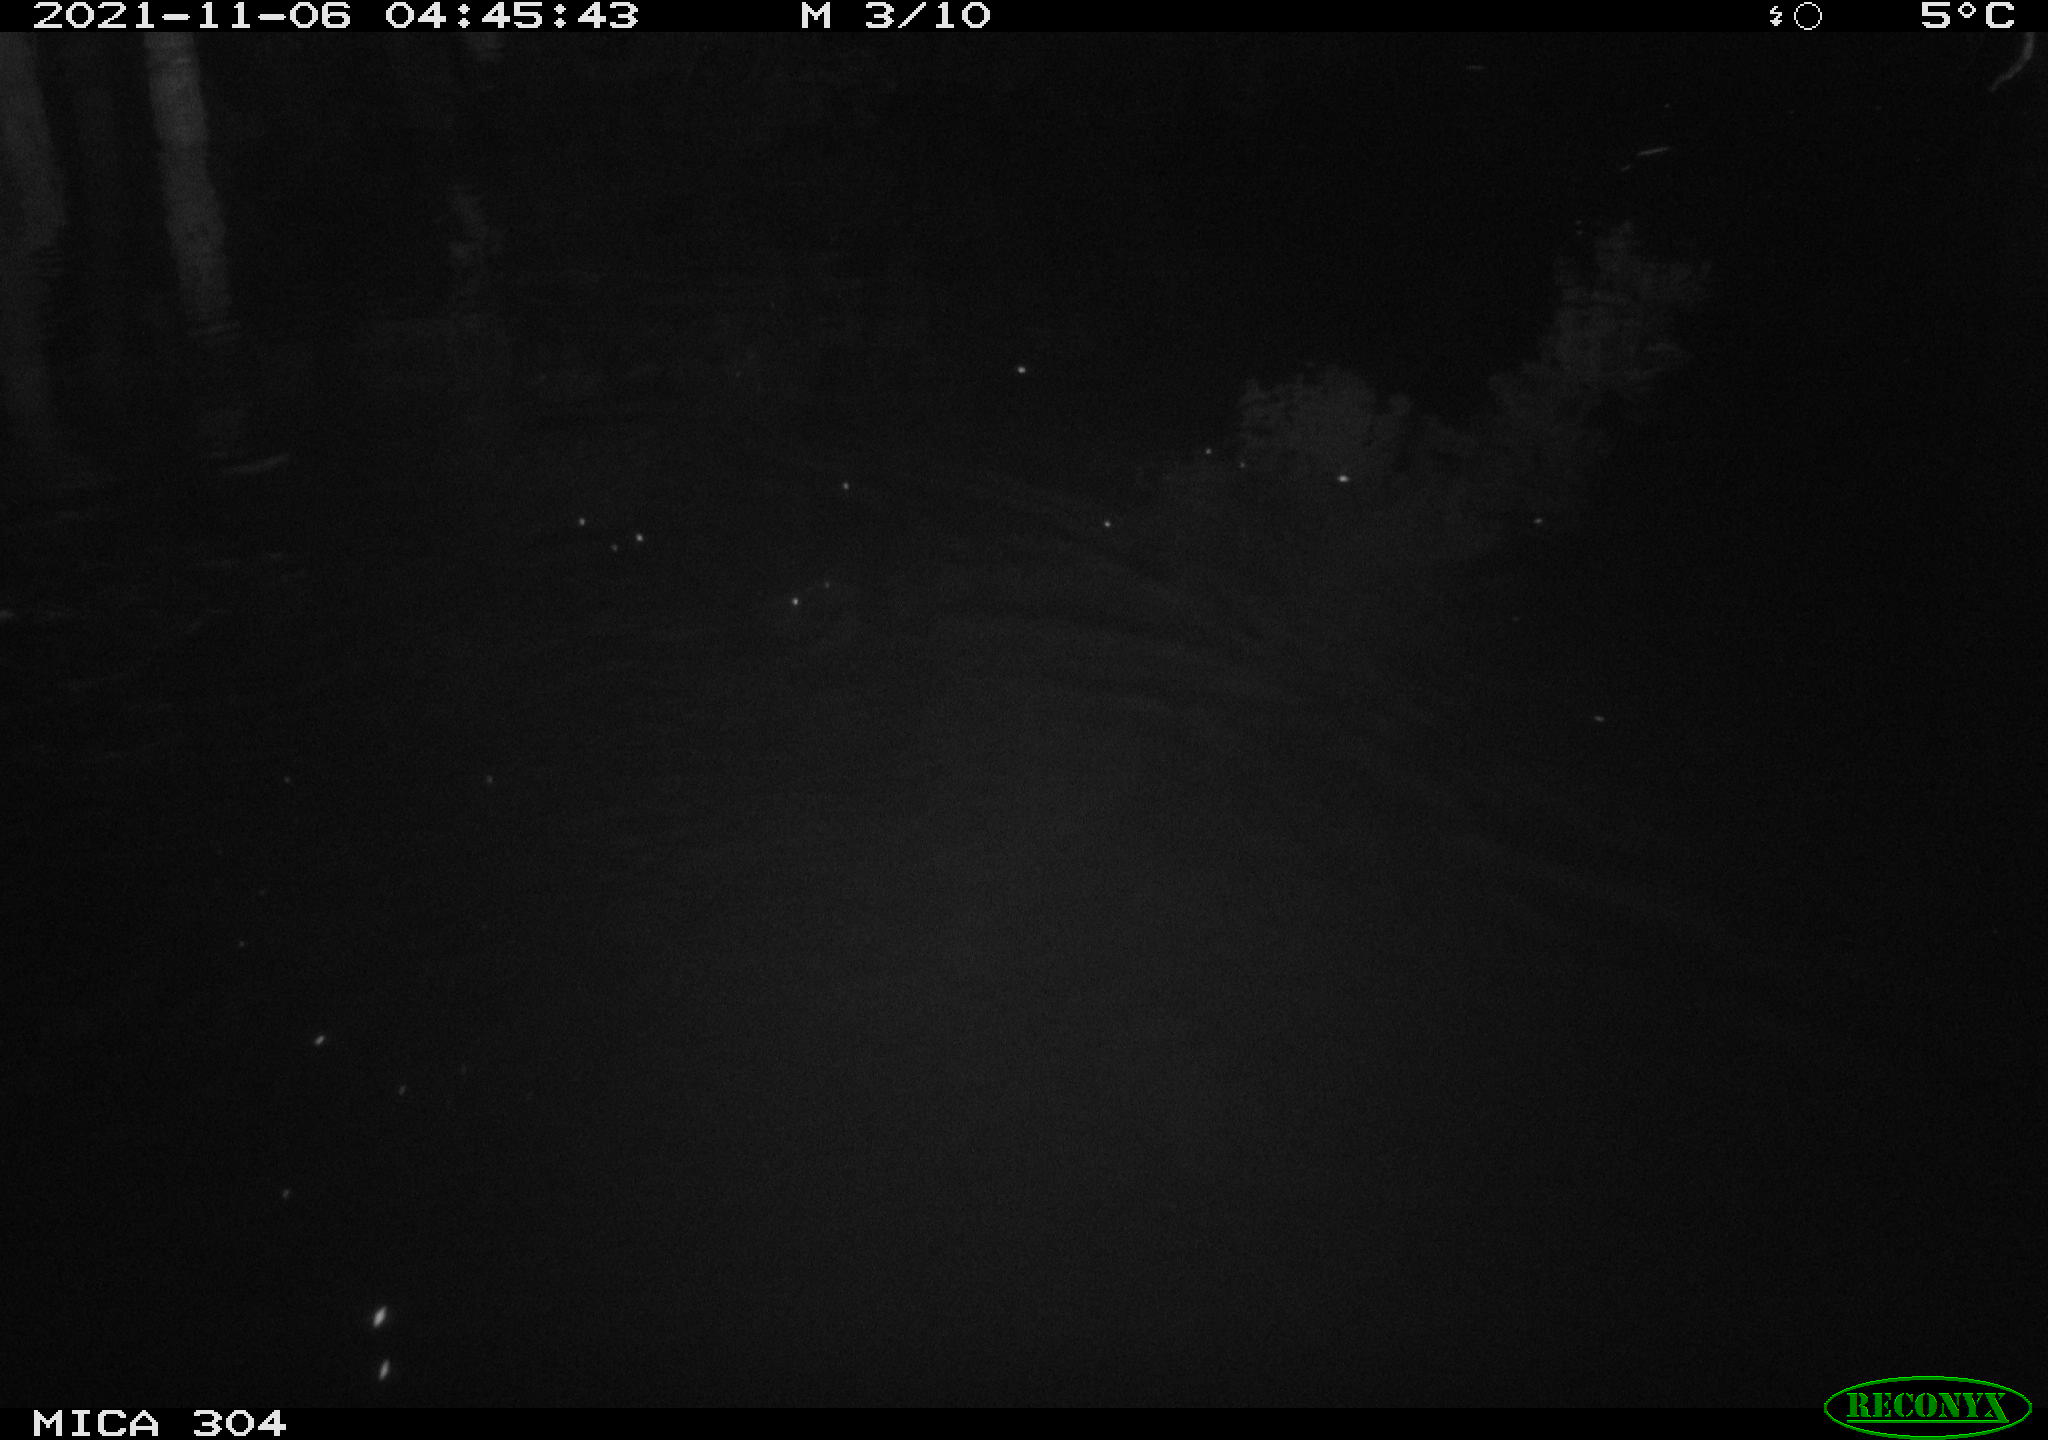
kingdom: Animalia
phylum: Chordata
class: Mammalia
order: Rodentia
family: Muridae
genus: Rattus
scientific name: Rattus norvegicus
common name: Brown rat
